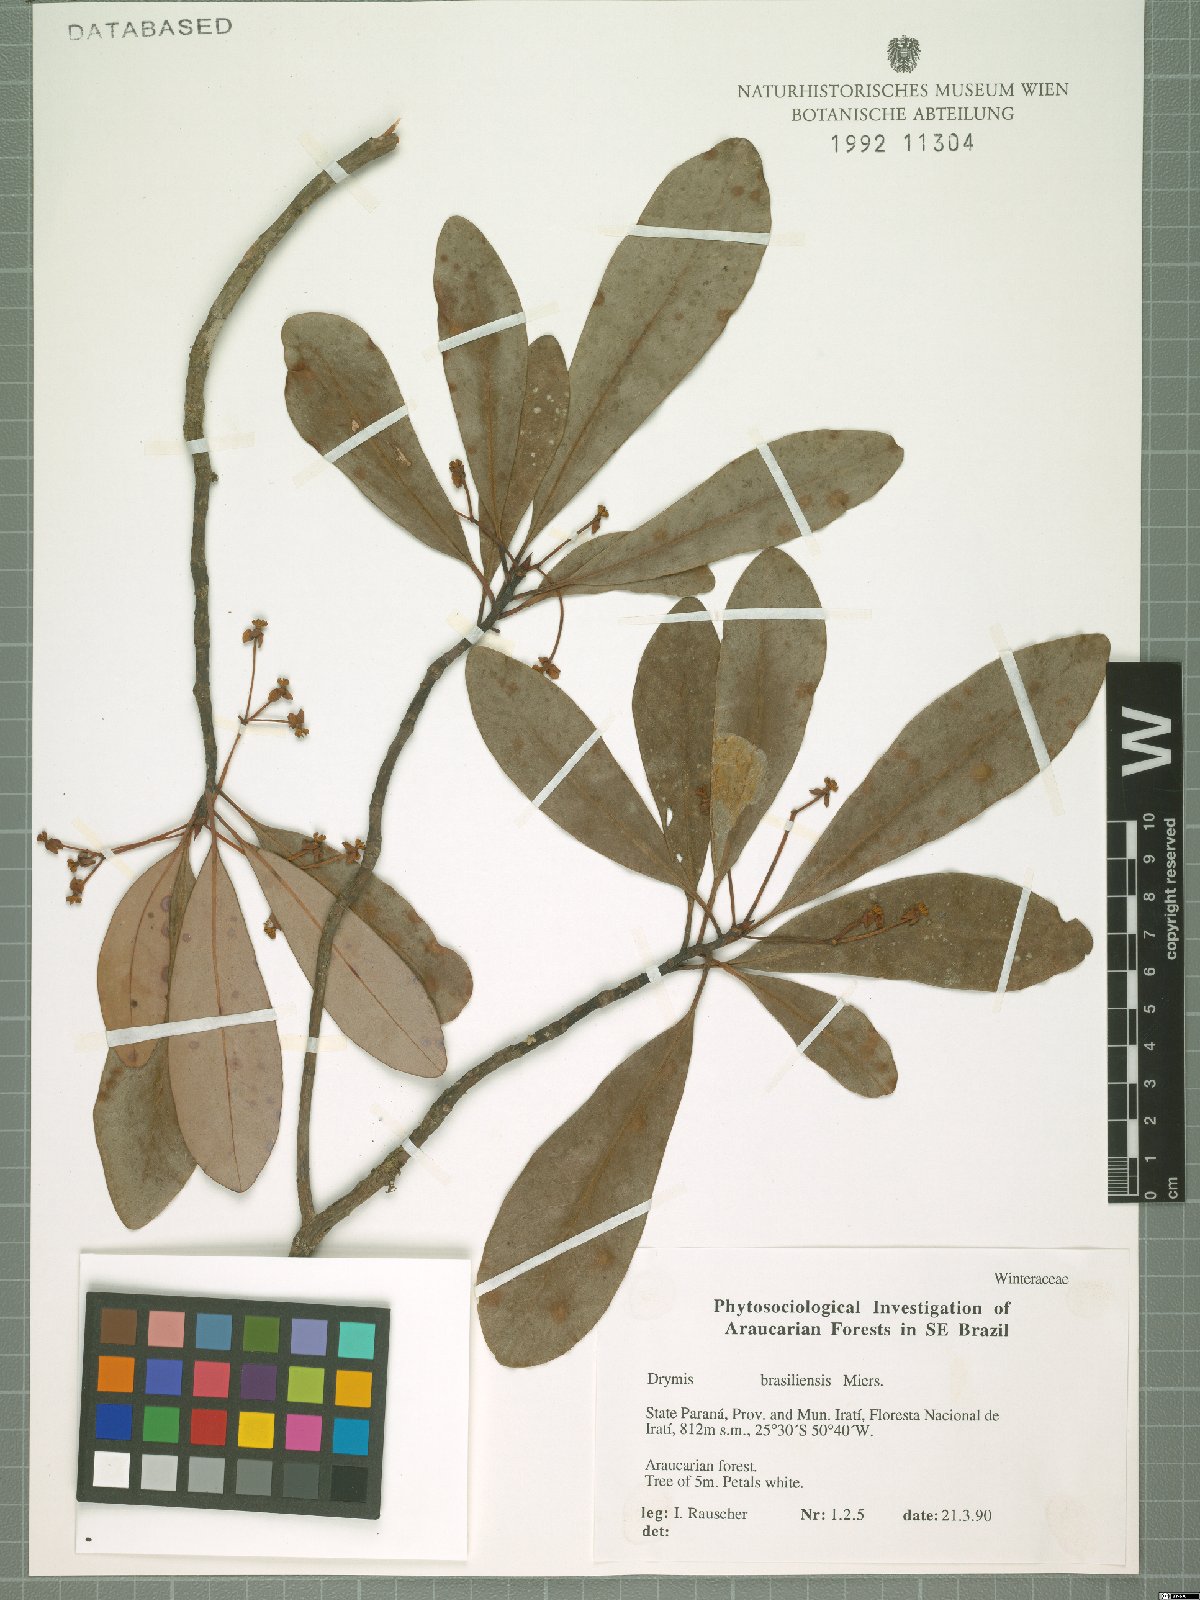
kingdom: Plantae
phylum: Tracheophyta
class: Magnoliopsida
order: Canellales
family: Winteraceae
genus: Drimys
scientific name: Drimys brasiliensis
